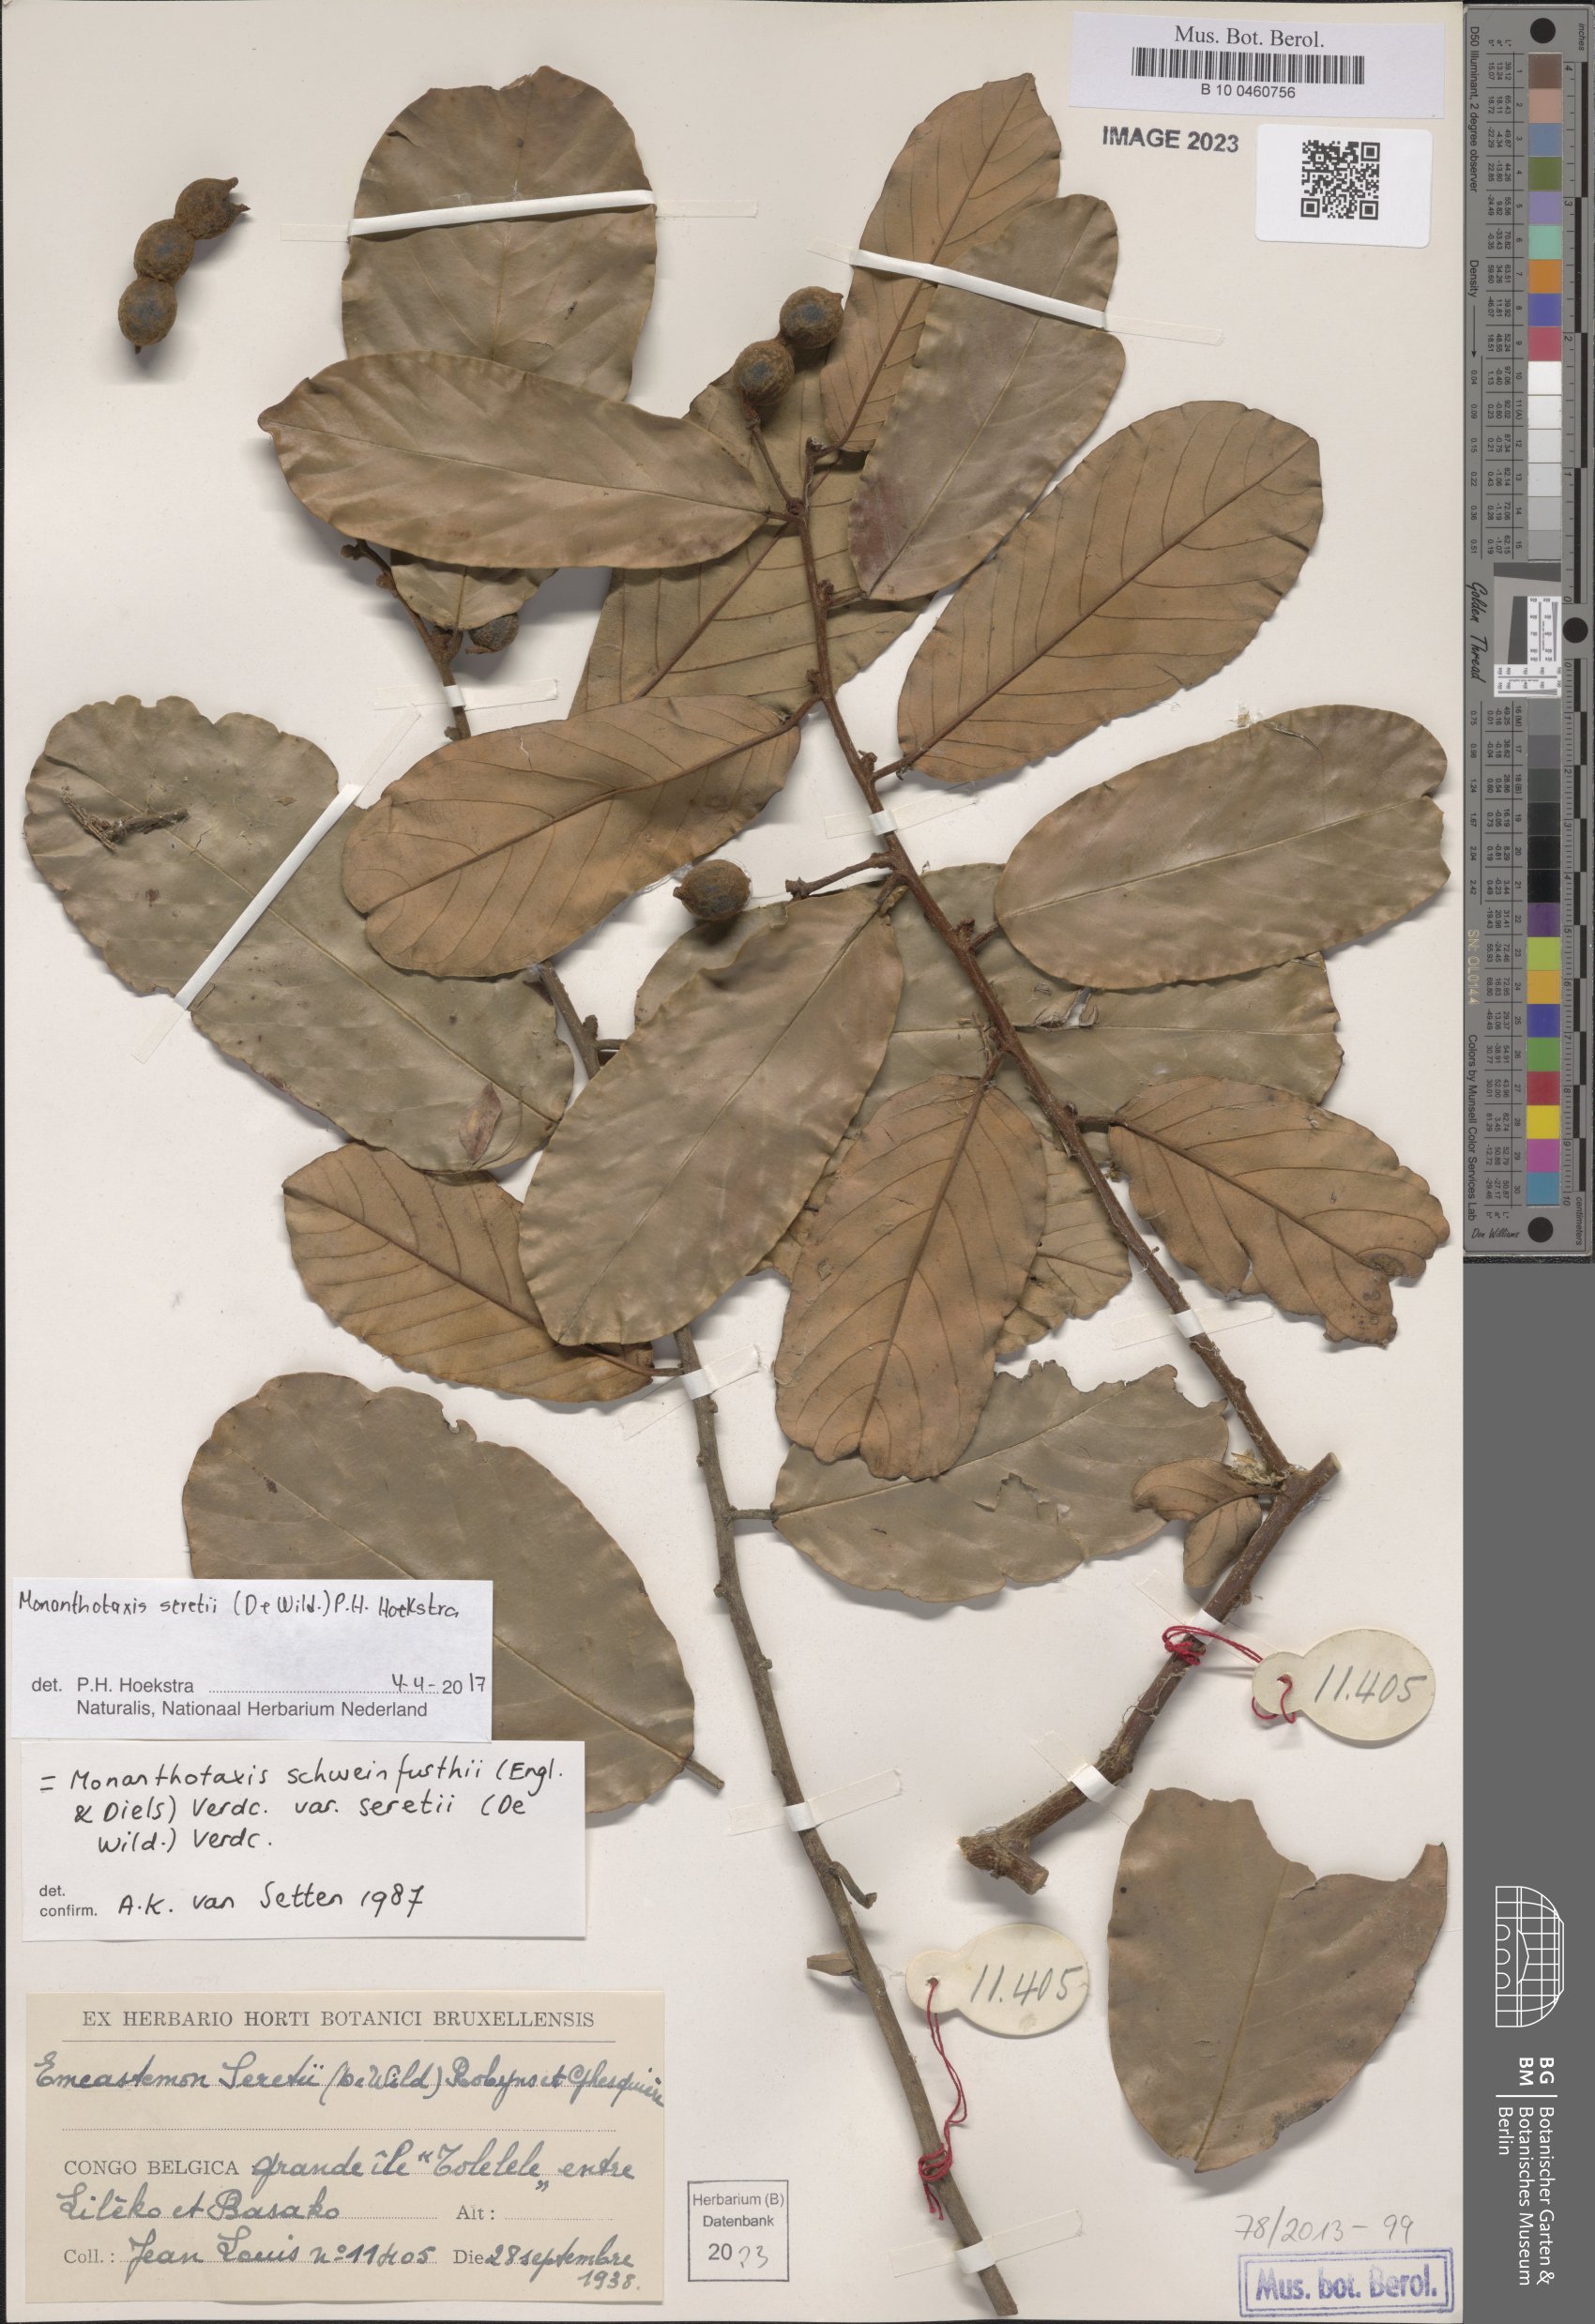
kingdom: Plantae
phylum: Tracheophyta
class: Magnoliopsida
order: Magnoliales
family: Annonaceae
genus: Monanthotaxis
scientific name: Monanthotaxis
